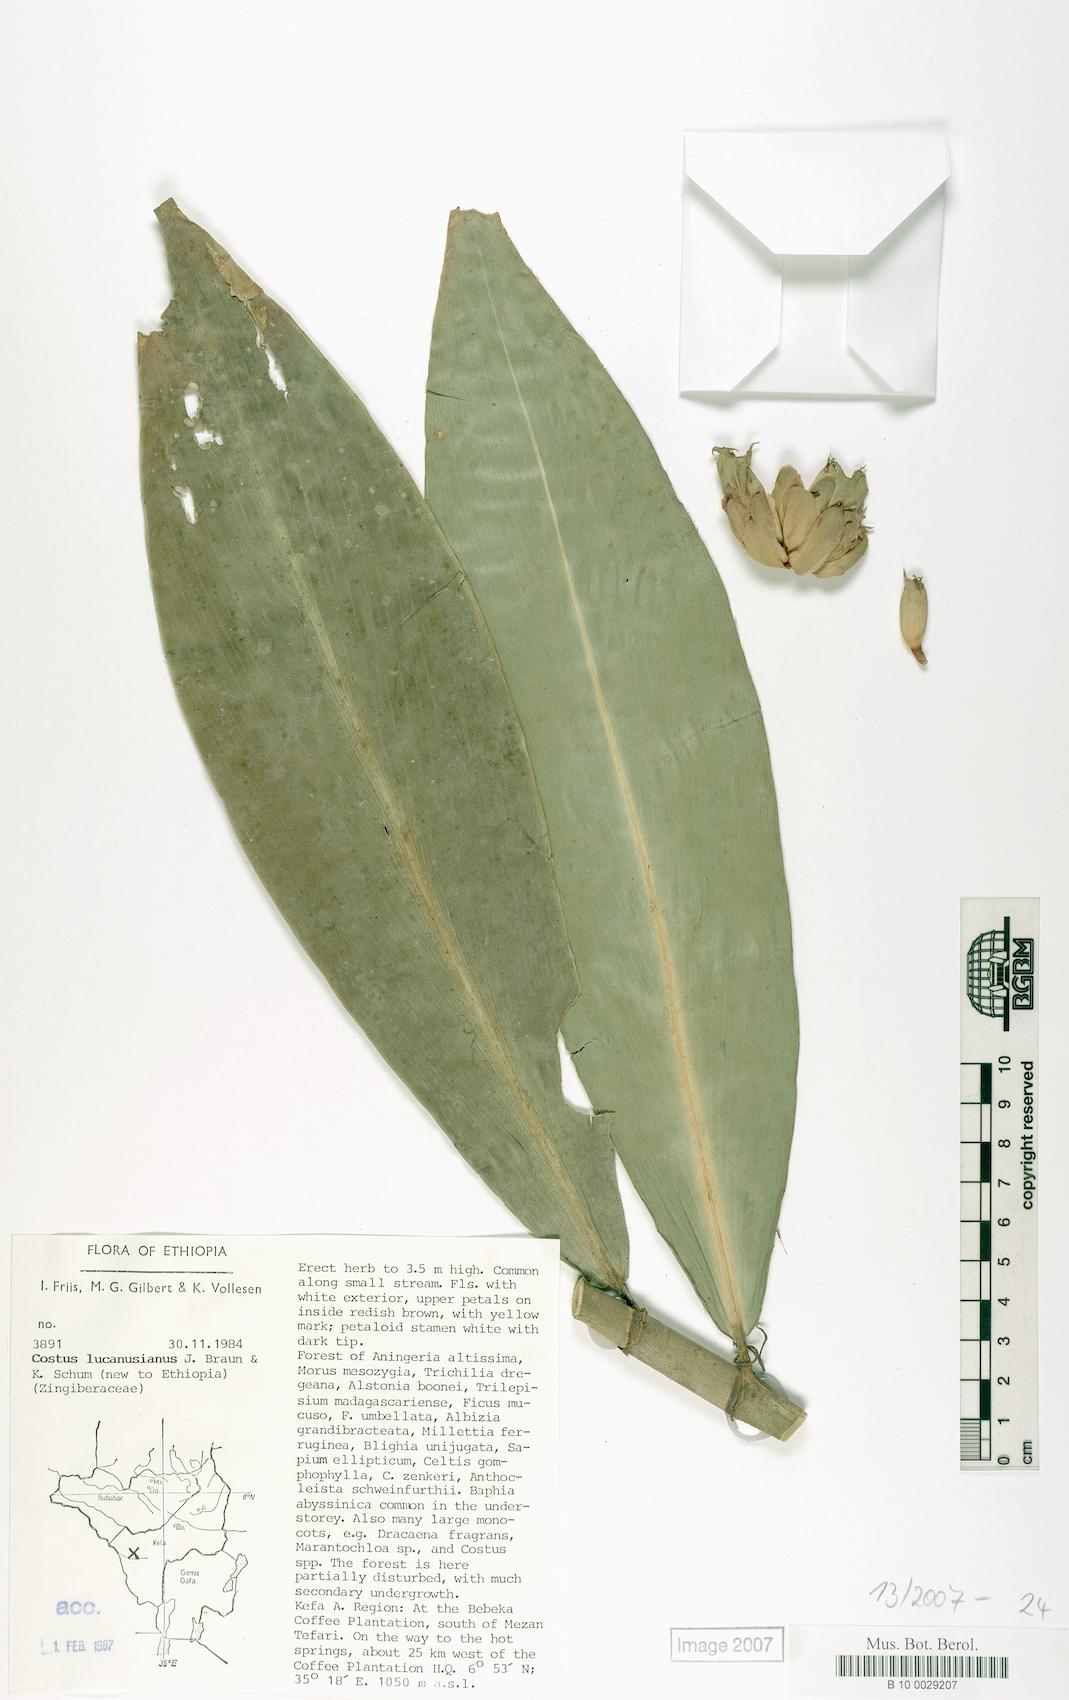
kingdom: Plantae
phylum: Tracheophyta
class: Liliopsida
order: Zingiberales
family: Costaceae
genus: Costus
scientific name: Costus lucanusianus
